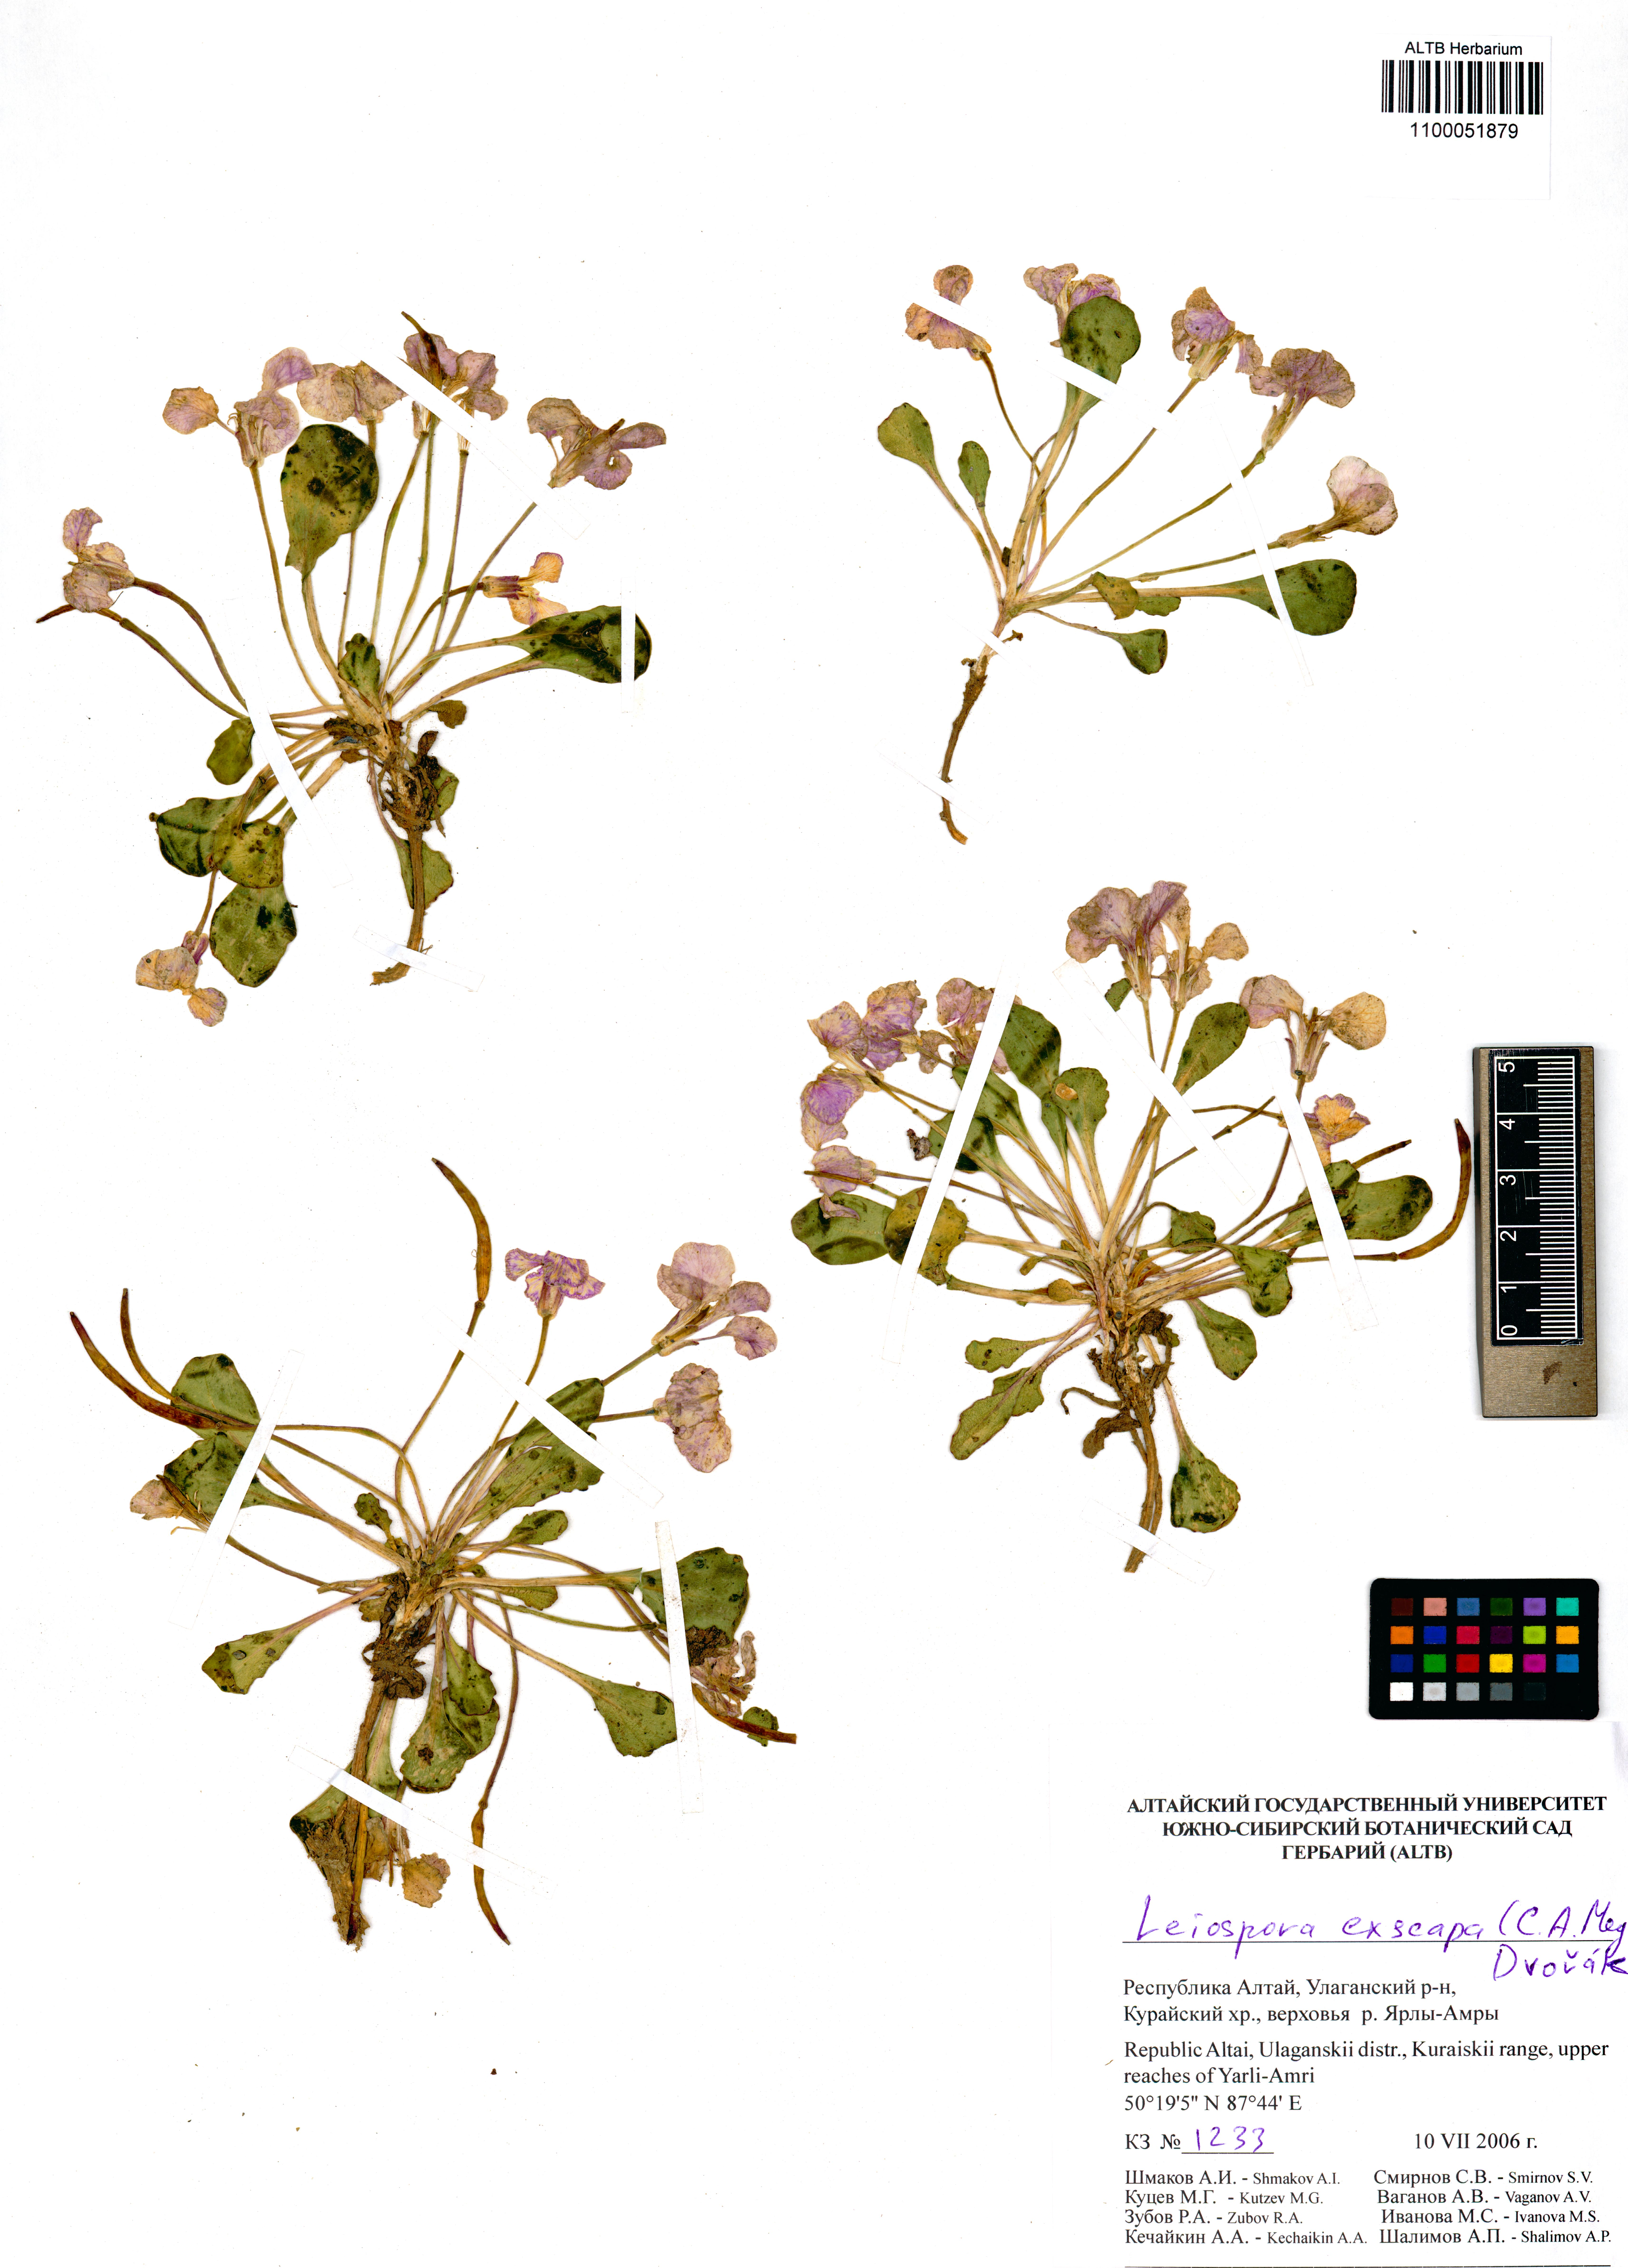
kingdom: Plantae
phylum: Tracheophyta
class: Magnoliopsida
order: Brassicales
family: Brassicaceae
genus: Leiospora
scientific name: Leiospora exscapa
